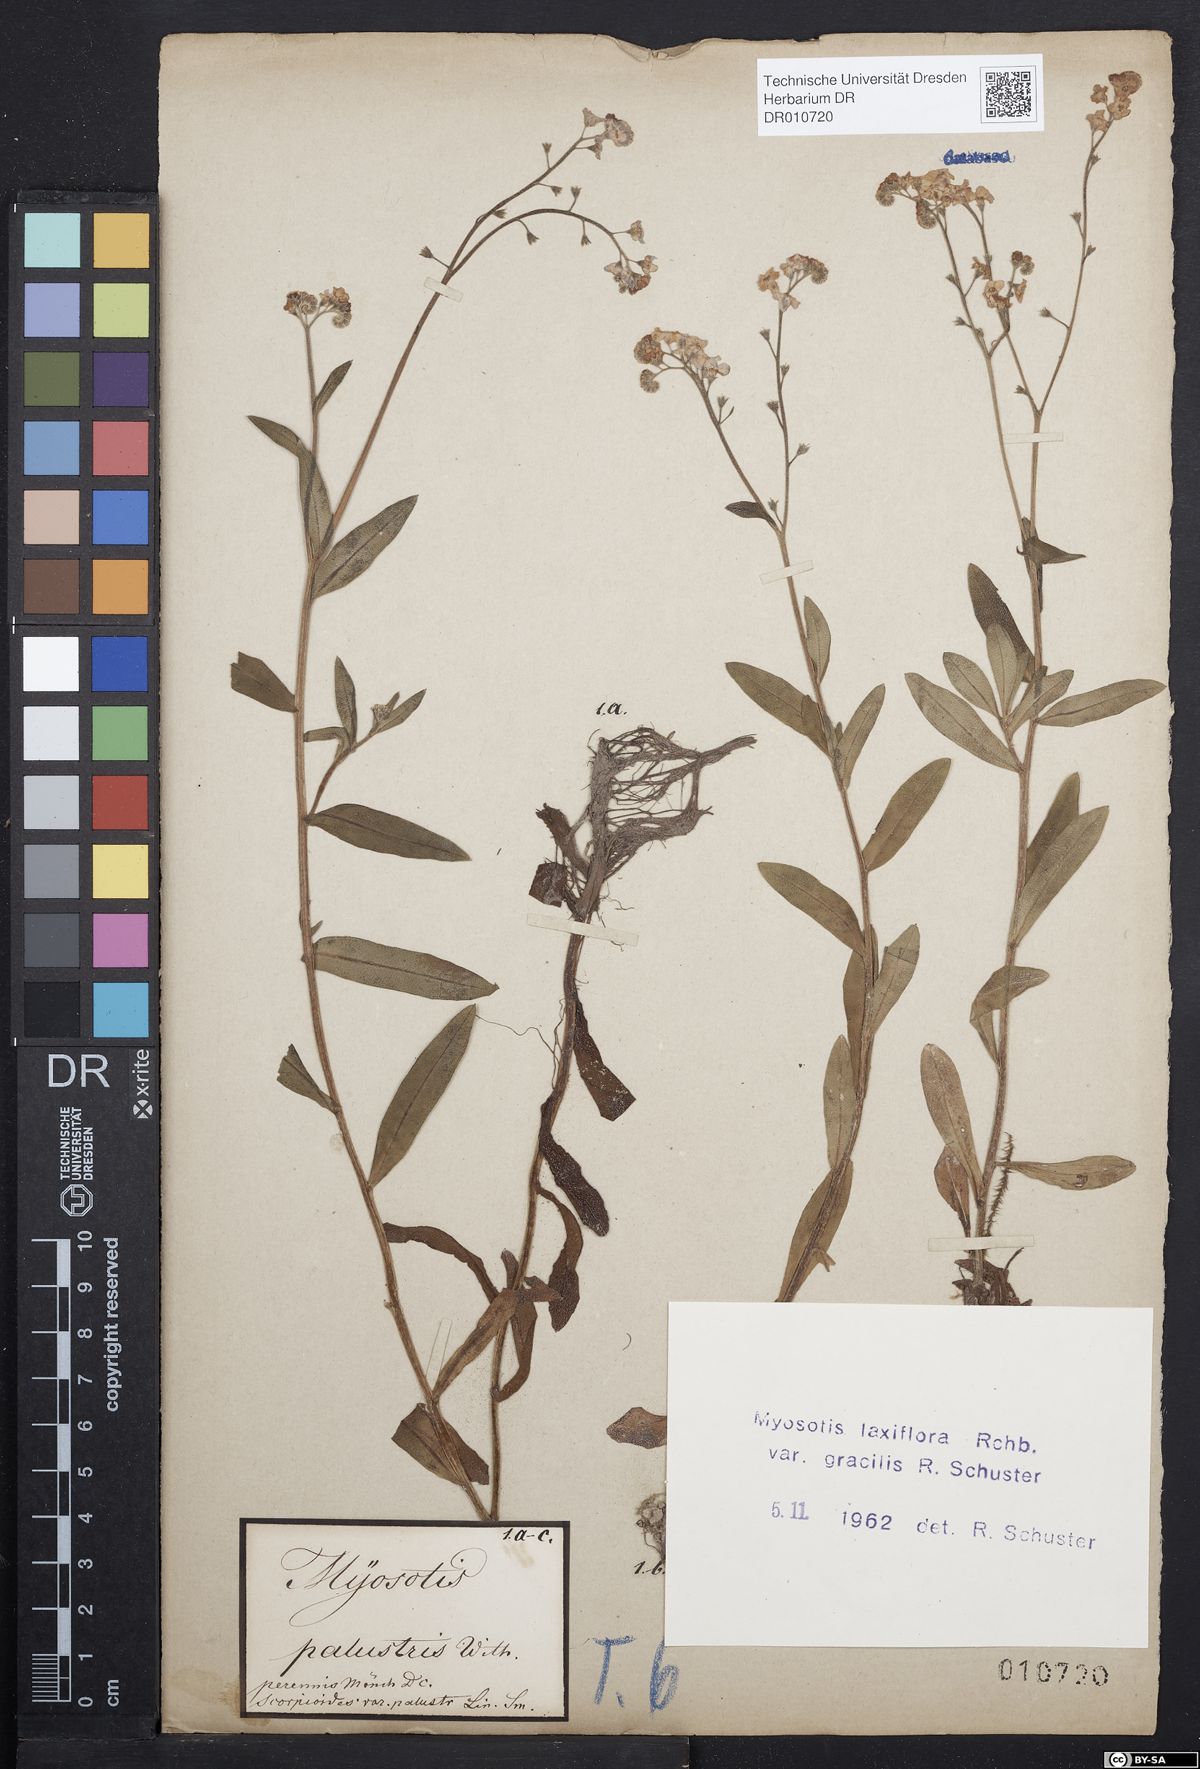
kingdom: Plantae
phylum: Tracheophyta
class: Magnoliopsida
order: Boraginales
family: Boraginaceae
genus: Myosotis
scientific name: Myosotis scorpioides
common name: Water forget-me-not
